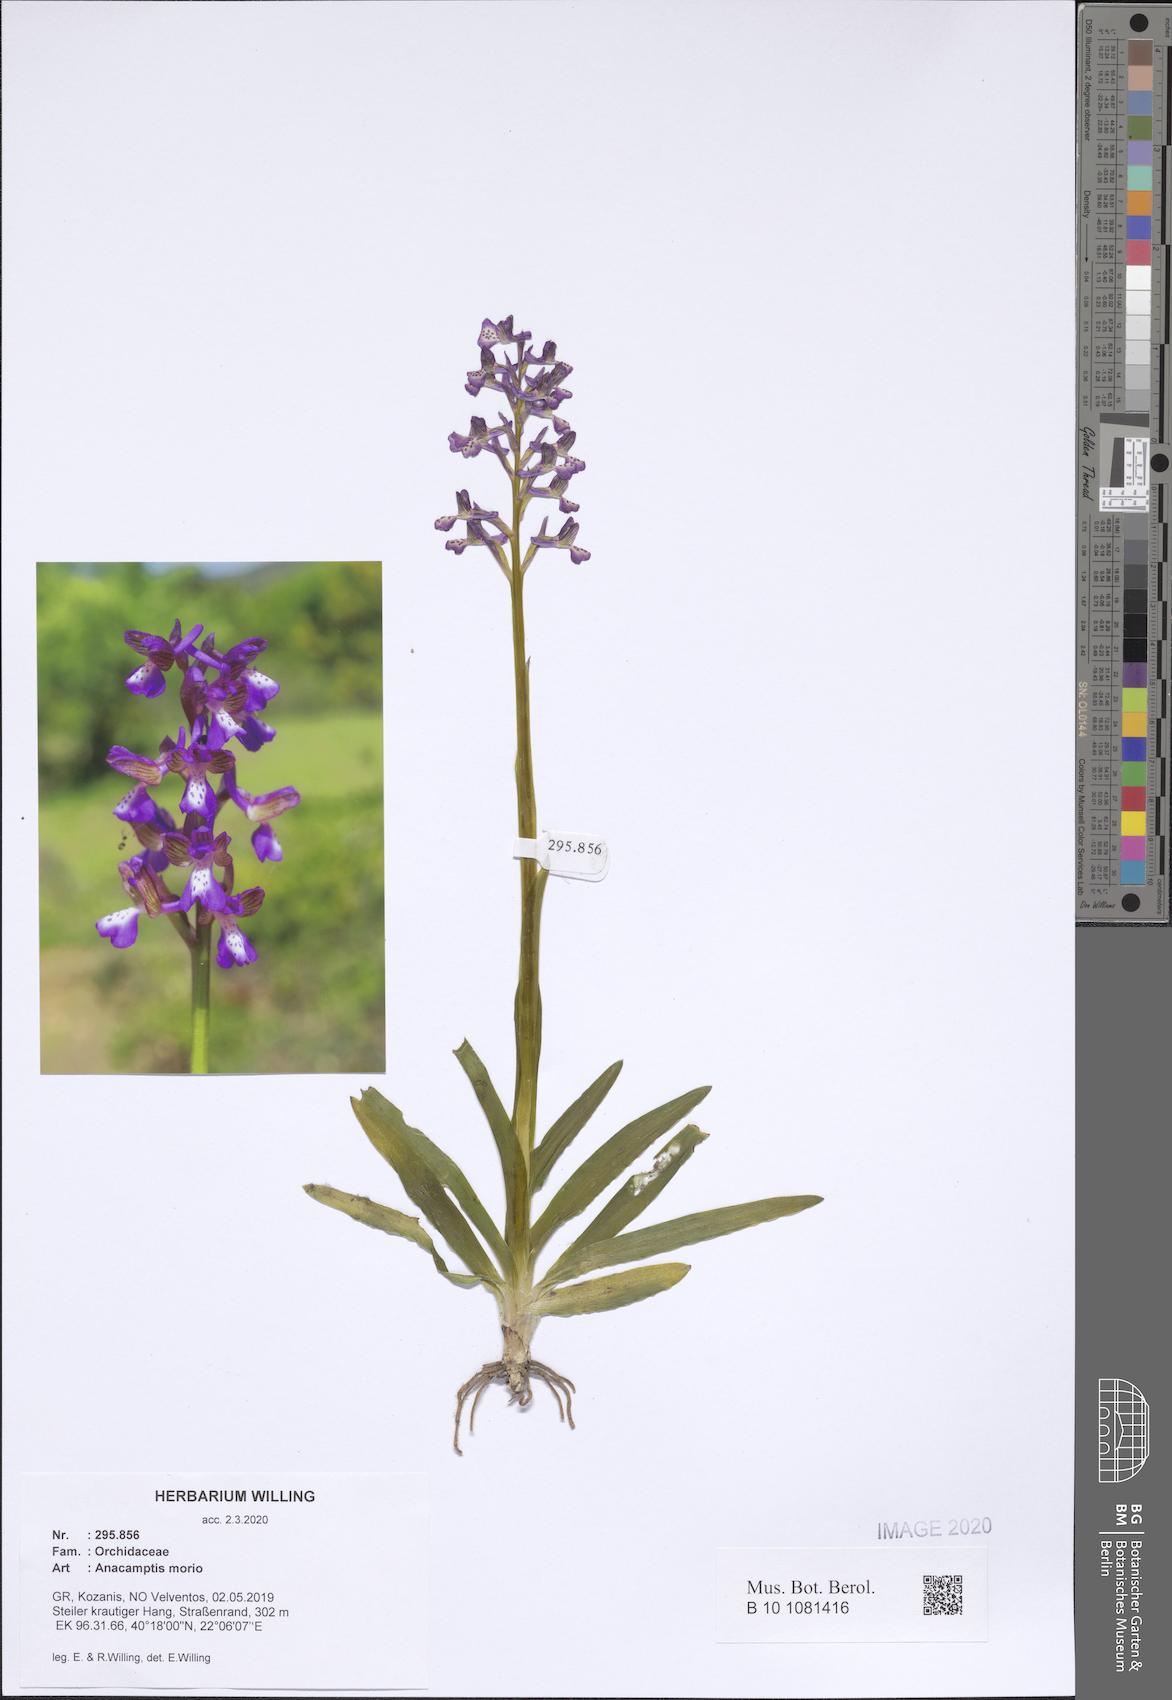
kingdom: Plantae
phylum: Tracheophyta
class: Liliopsida
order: Asparagales
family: Orchidaceae
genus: Anacamptis
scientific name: Anacamptis morio
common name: Green-winged orchid
